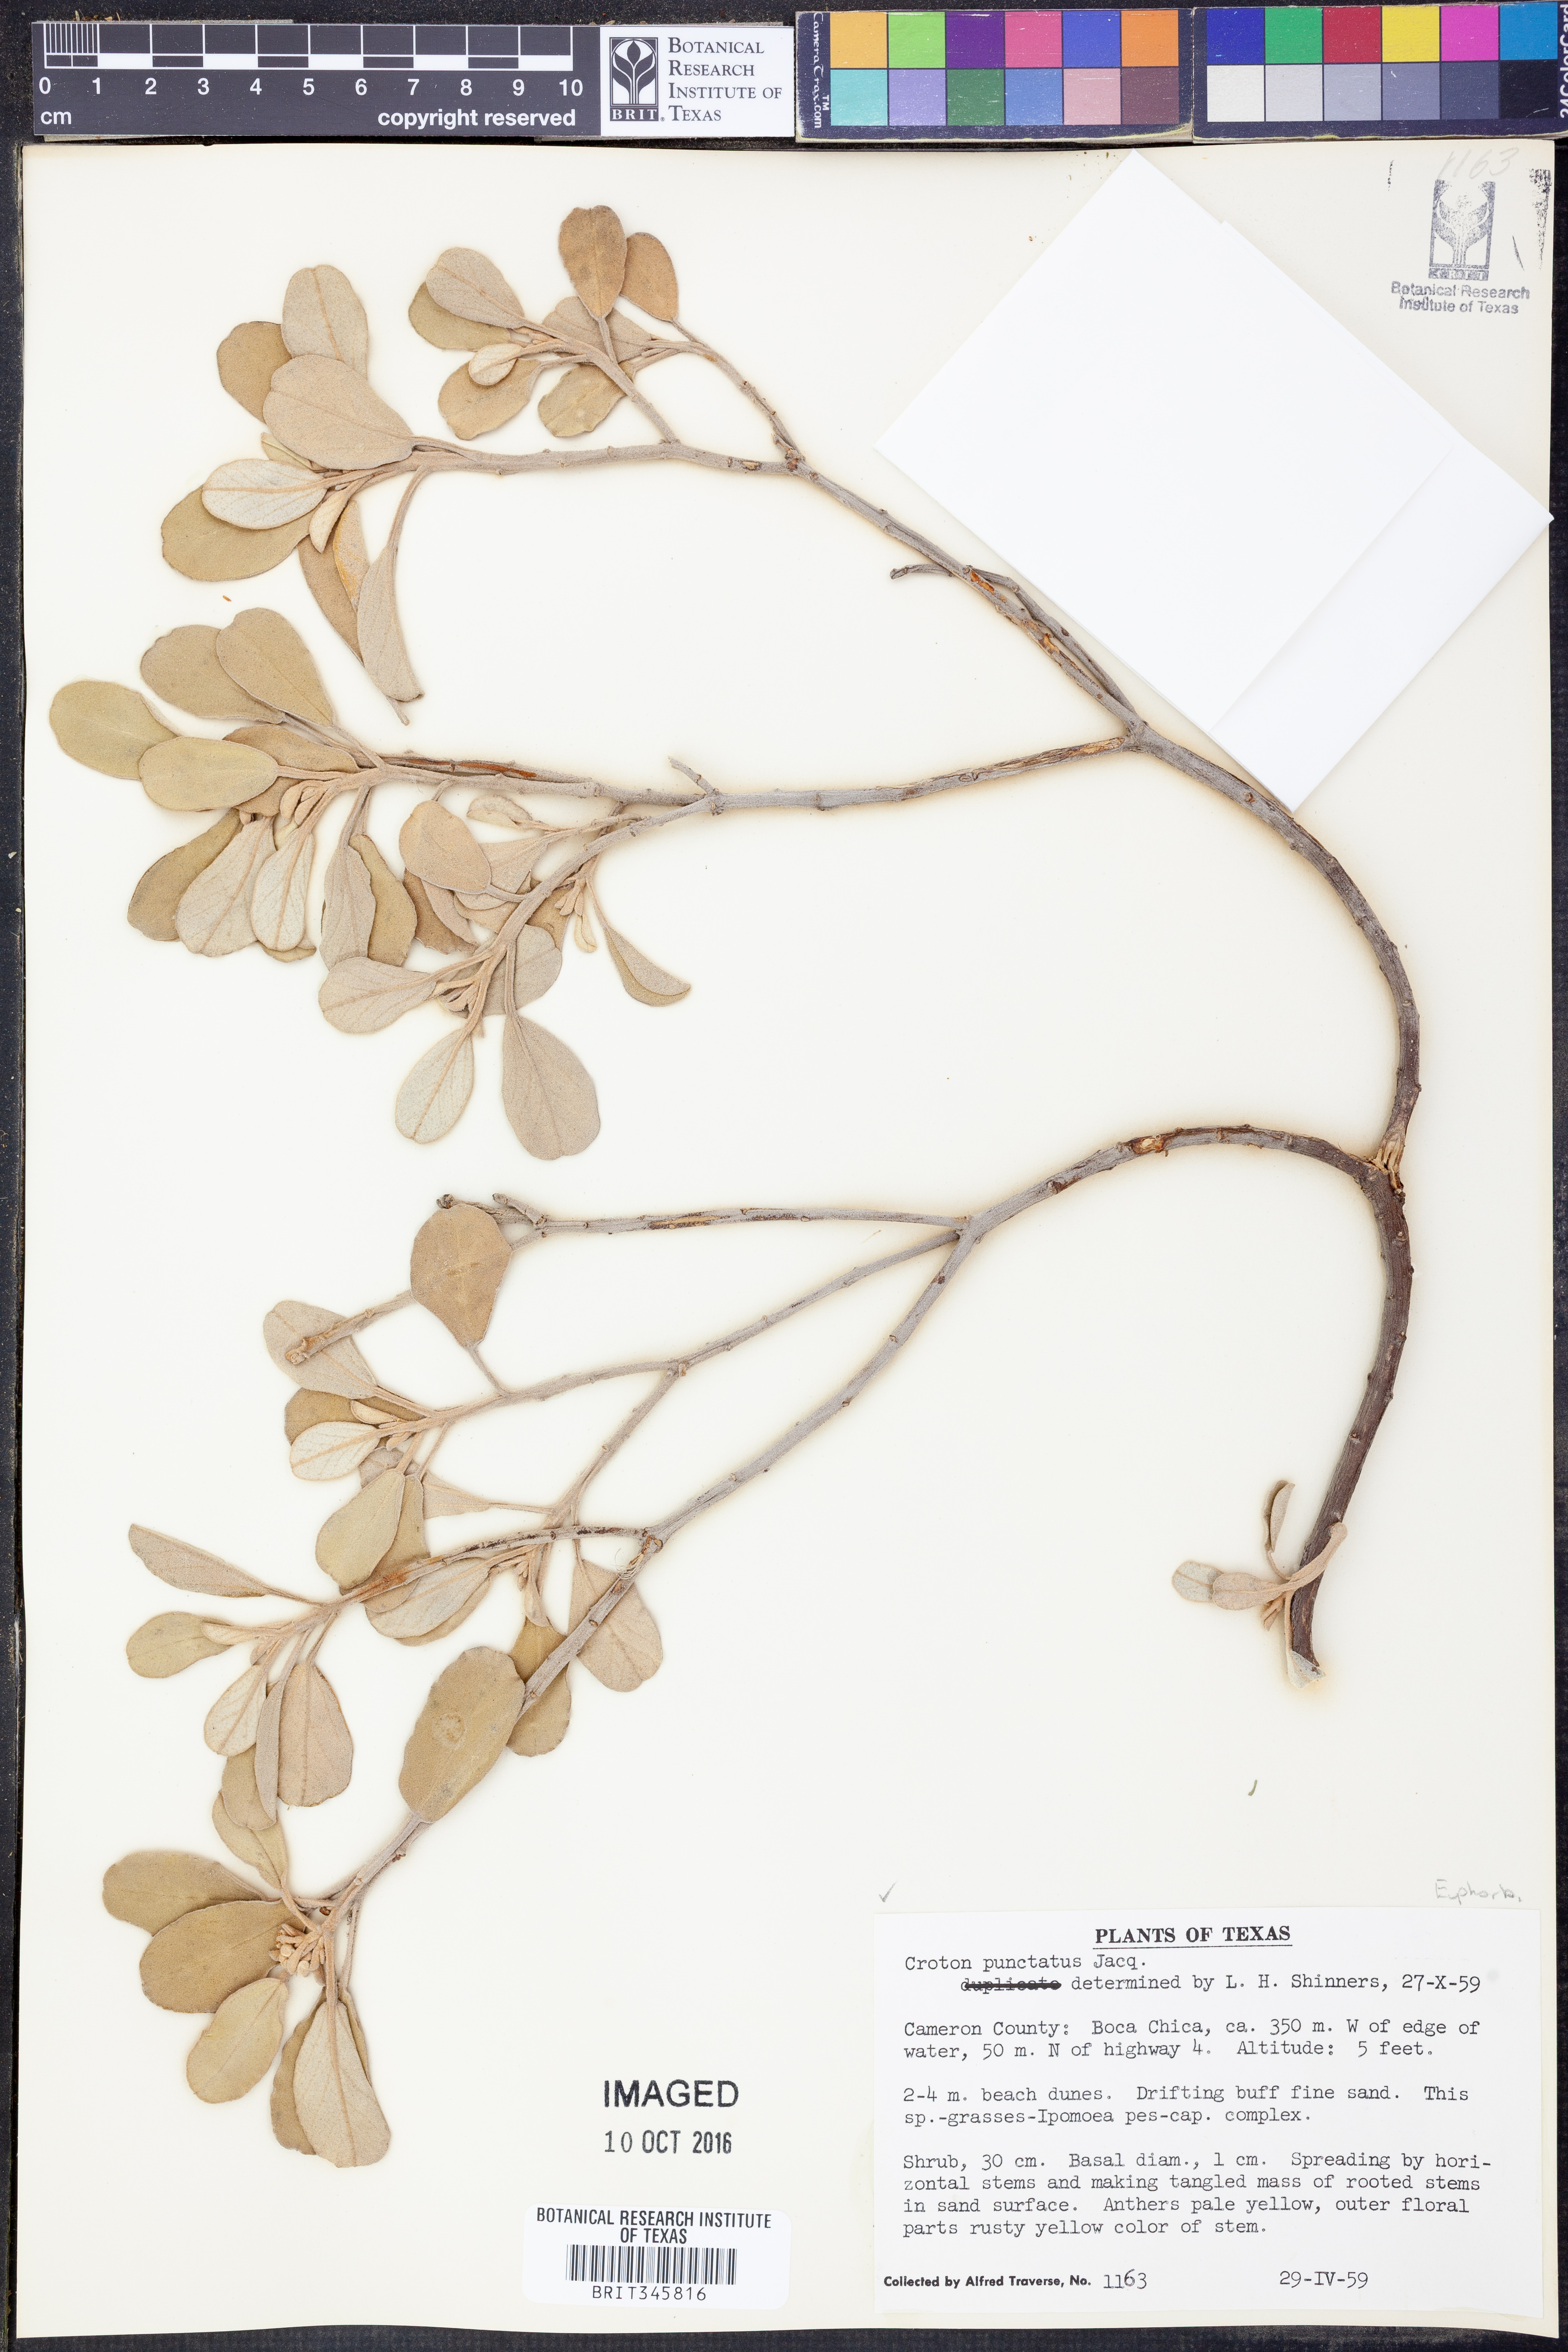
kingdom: Plantae
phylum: Tracheophyta
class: Magnoliopsida
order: Malpighiales
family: Euphorbiaceae
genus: Croton
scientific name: Croton punctatus
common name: Beach-tea
